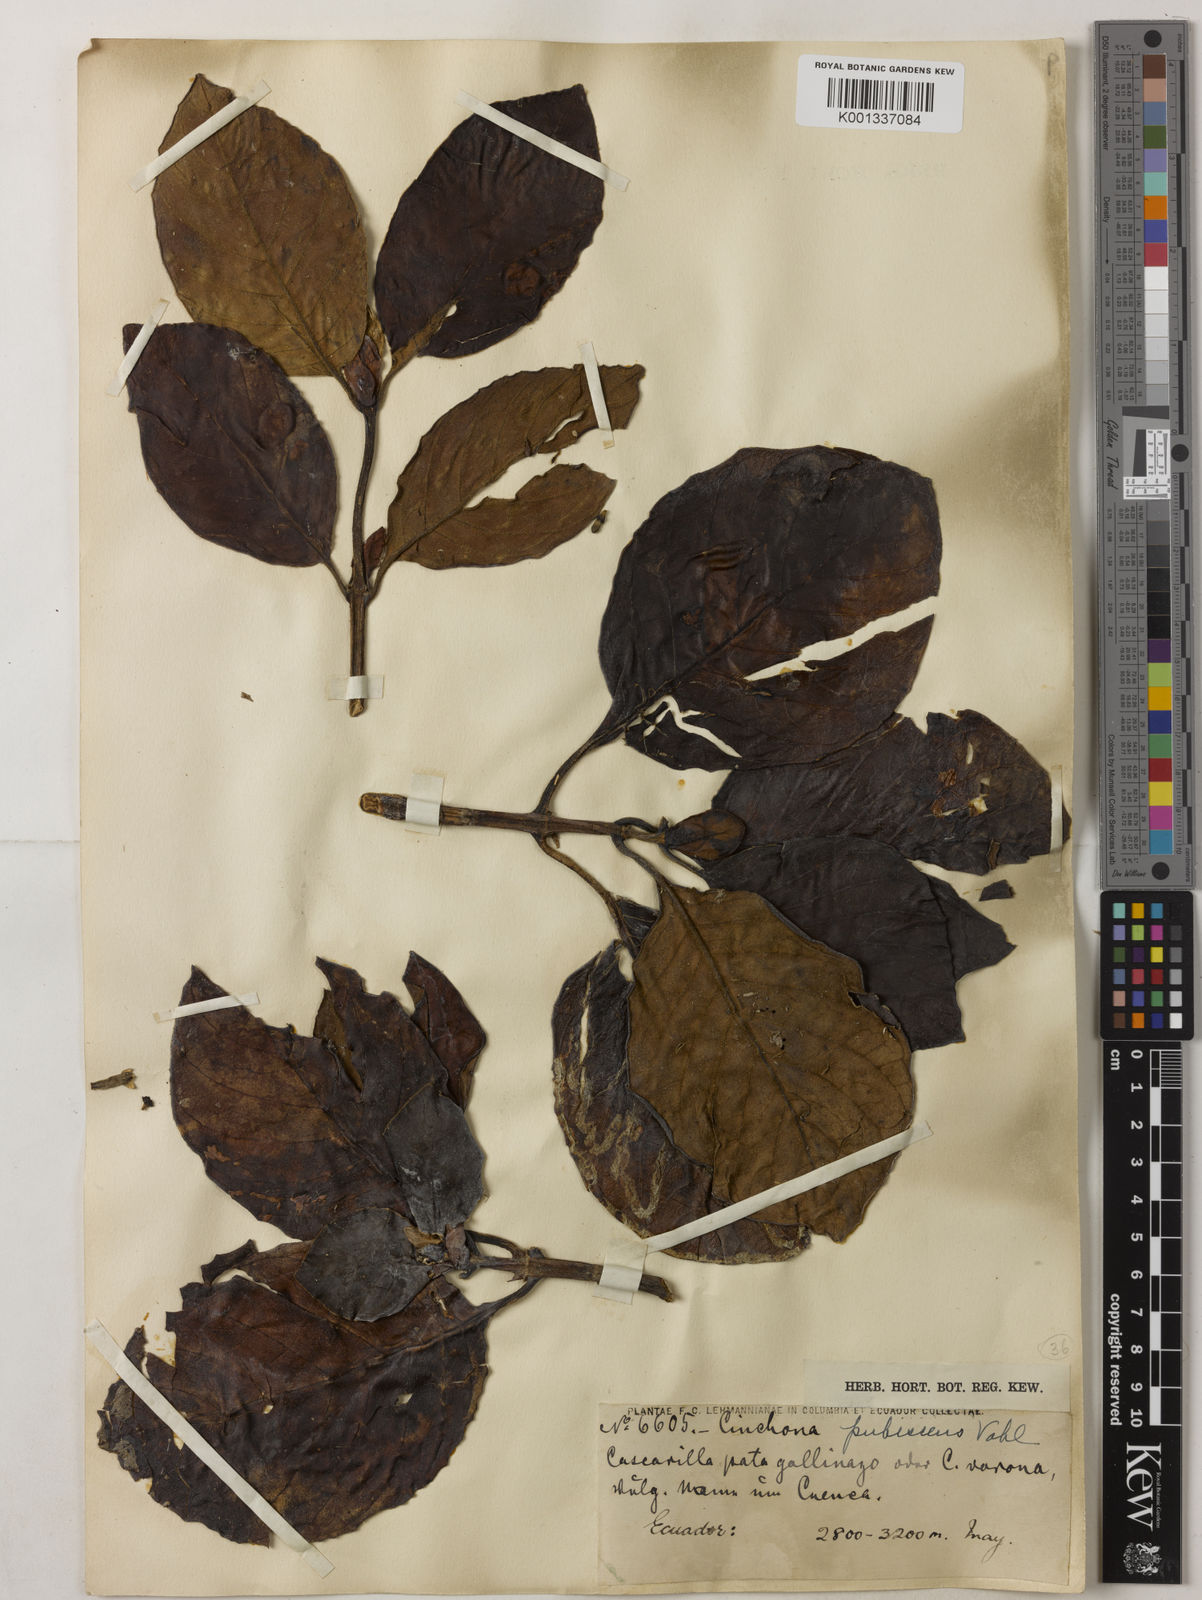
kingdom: Plantae
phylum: Tracheophyta
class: Magnoliopsida
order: Gentianales
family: Rubiaceae
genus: Cinchona
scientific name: Cinchona pubescens
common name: Quinine
